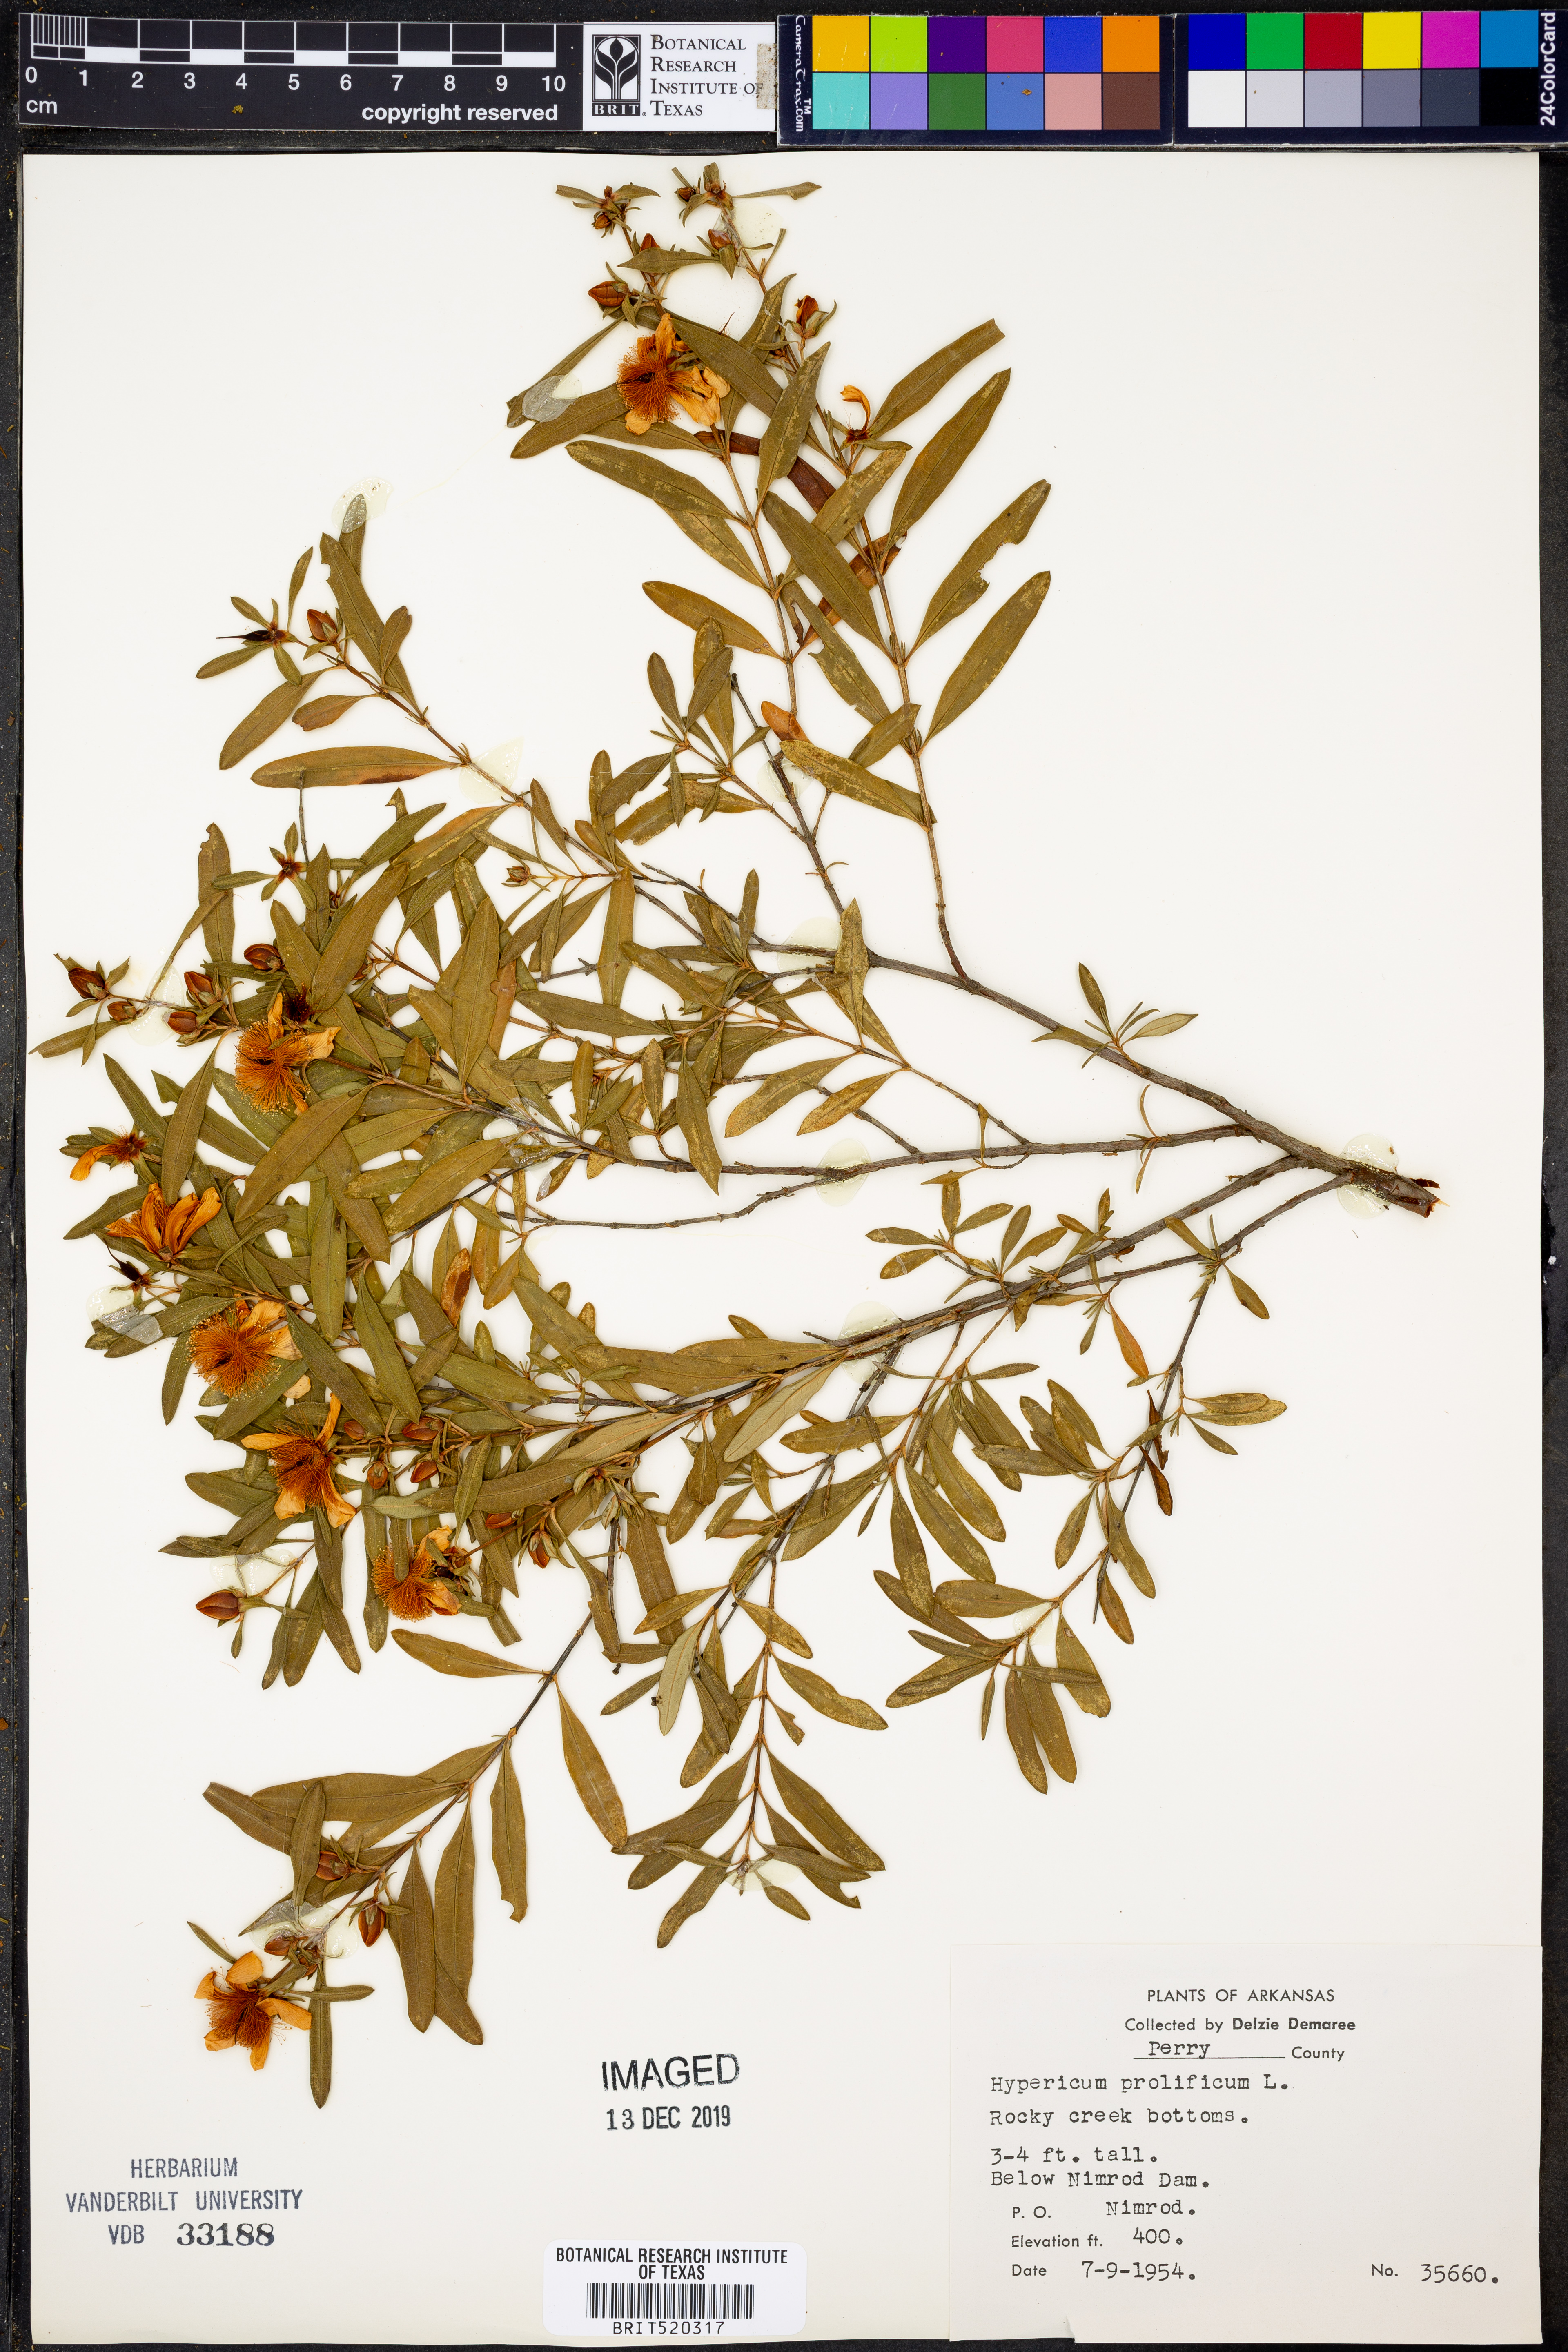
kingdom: Plantae
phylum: Tracheophyta
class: Magnoliopsida
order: Malpighiales
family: Hypericaceae
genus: Hypericum
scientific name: Hypericum prolificum
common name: Shrubby st. john's-wort
